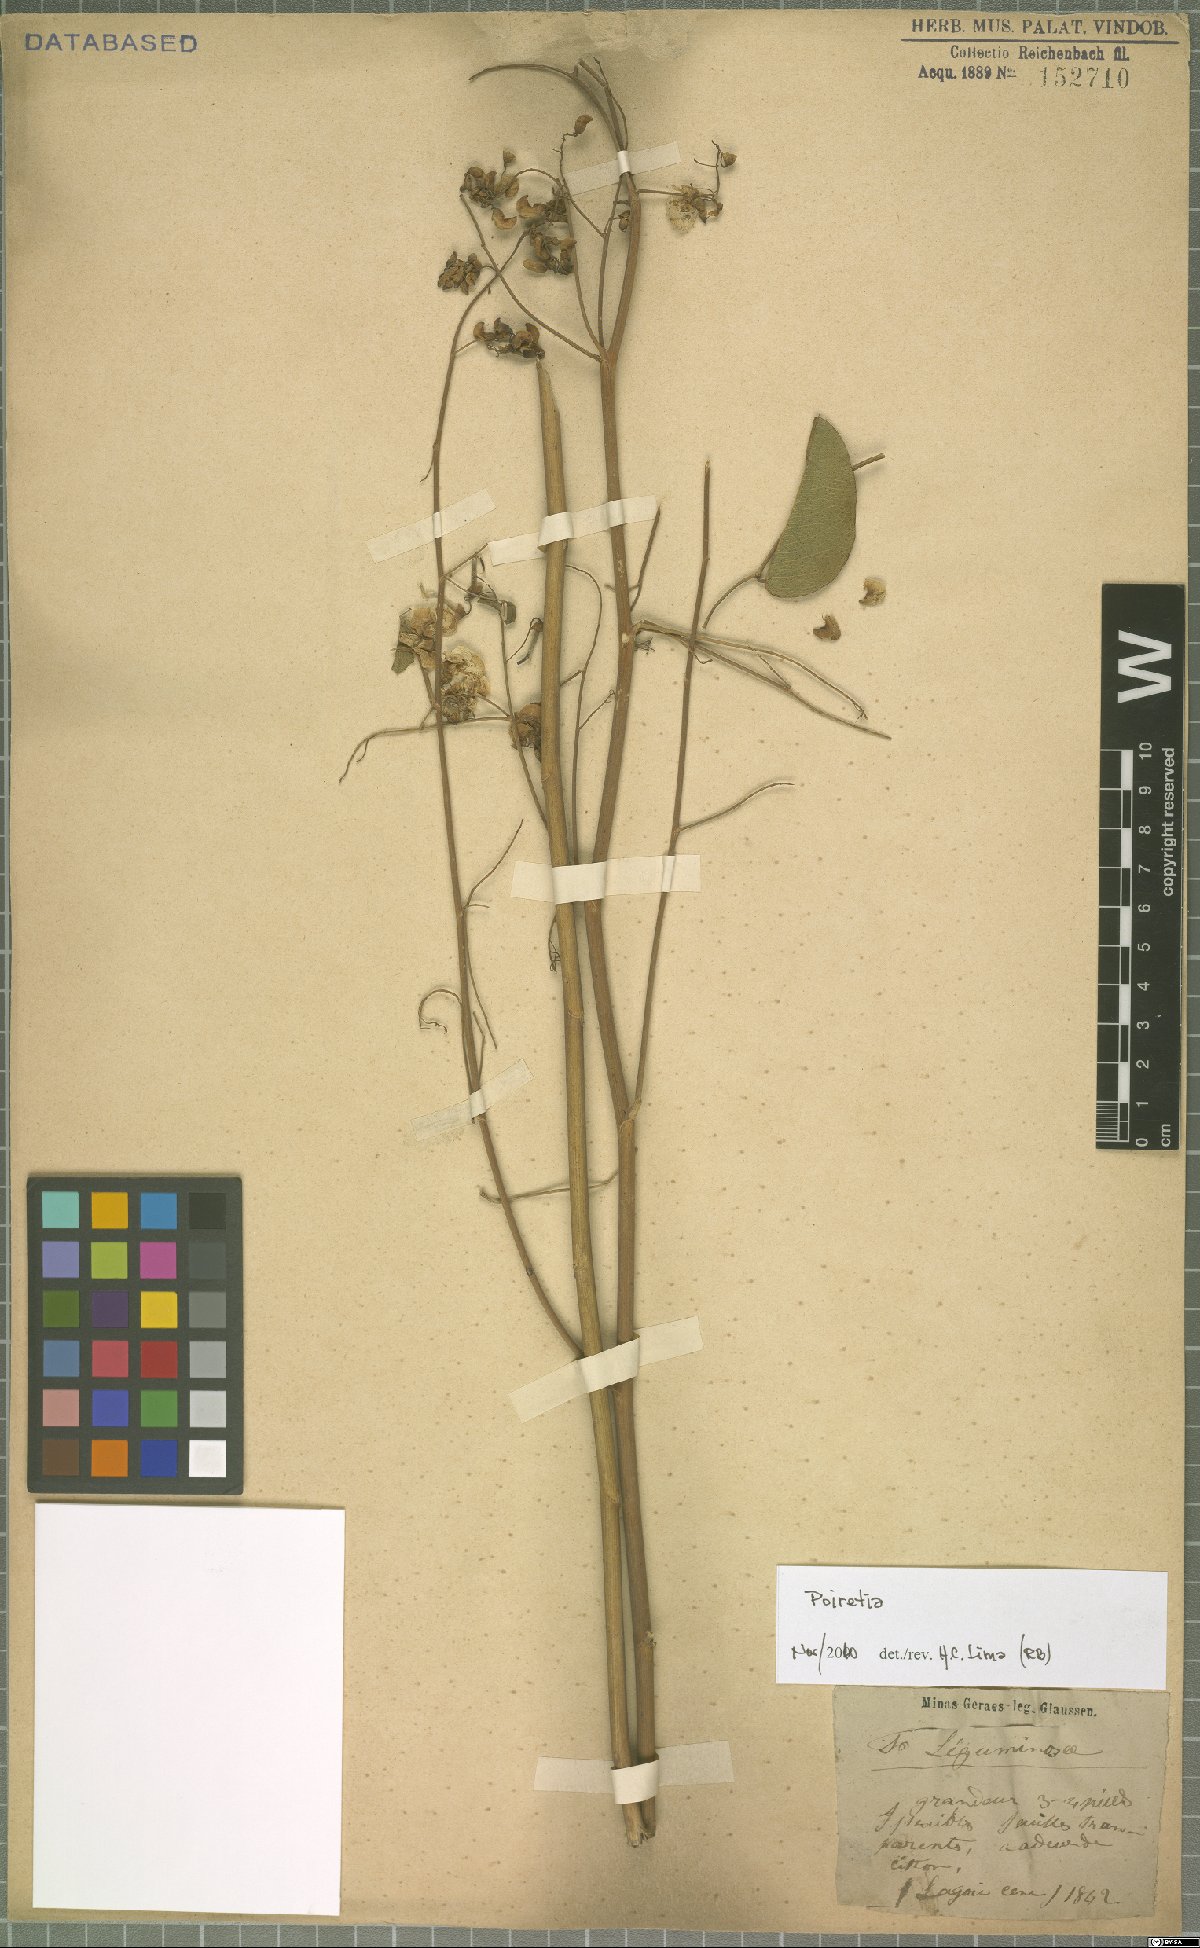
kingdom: Plantae
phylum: Tracheophyta
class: Magnoliopsida
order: Fabales
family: Fabaceae
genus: Poiretia
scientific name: Poiretia
